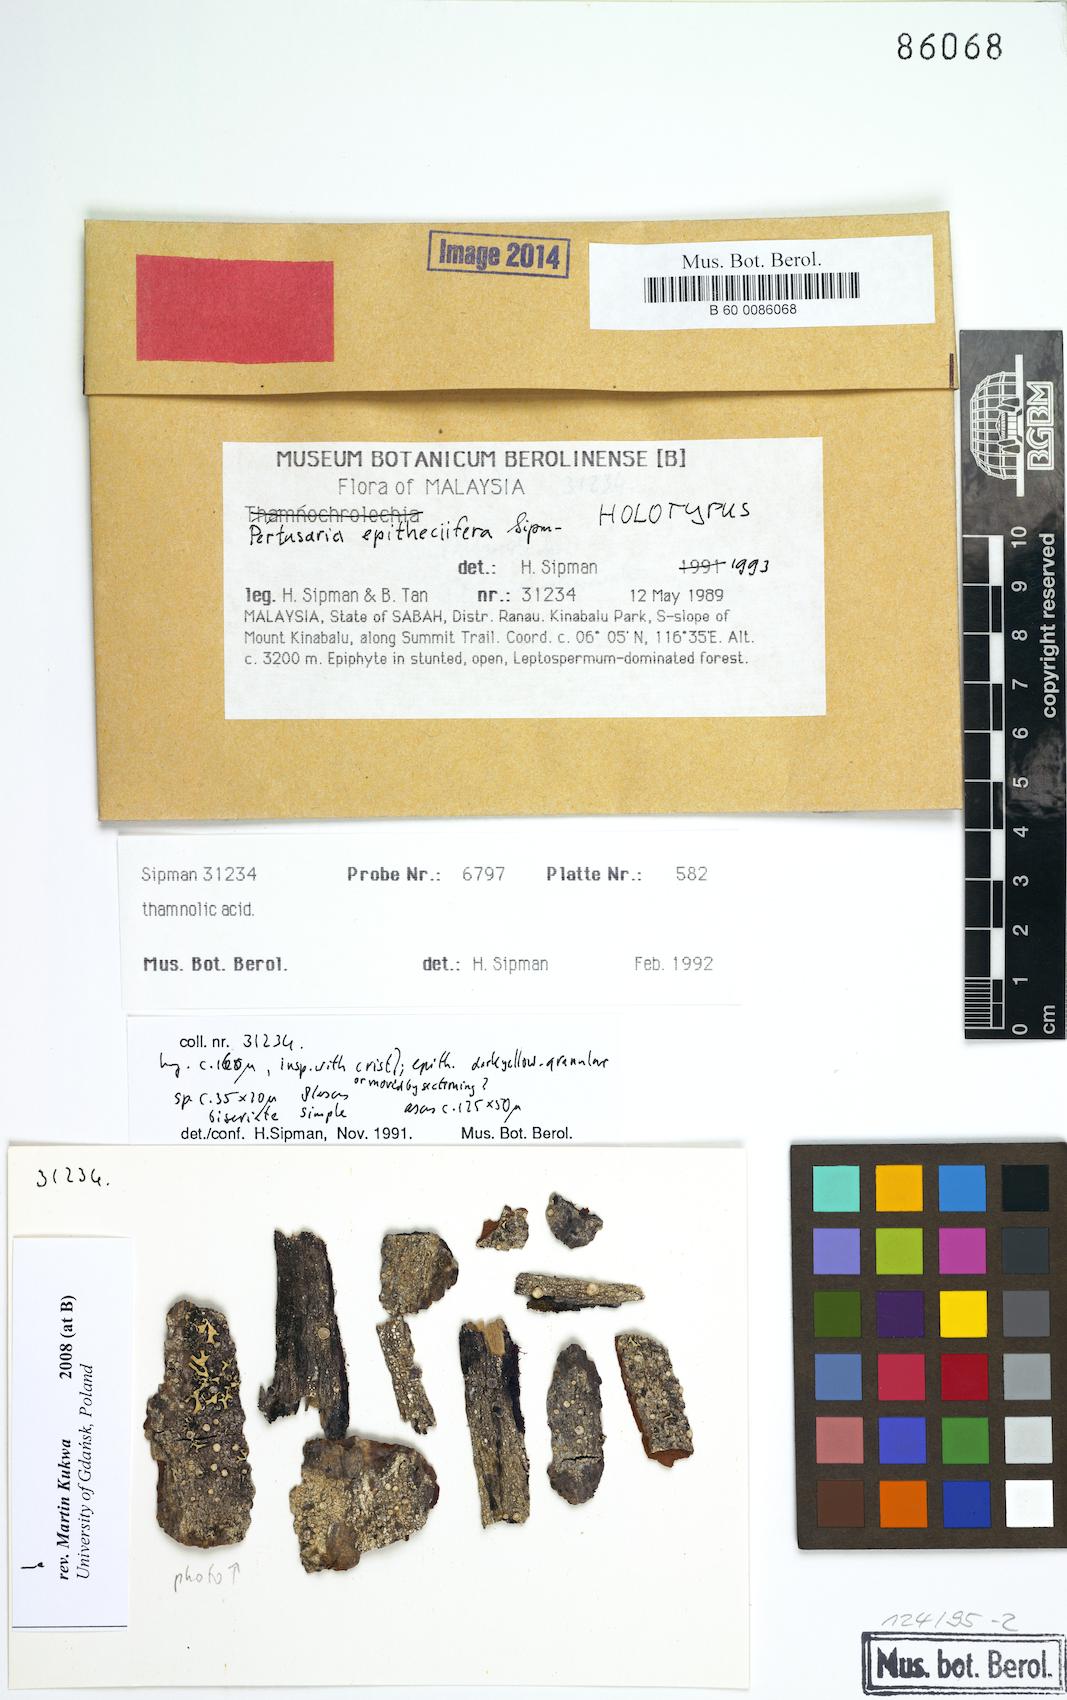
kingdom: Fungi
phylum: Ascomycota
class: Lecanoromycetes
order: Pertusariales
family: Pertusariaceae
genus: Pertusaria
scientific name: Pertusaria
